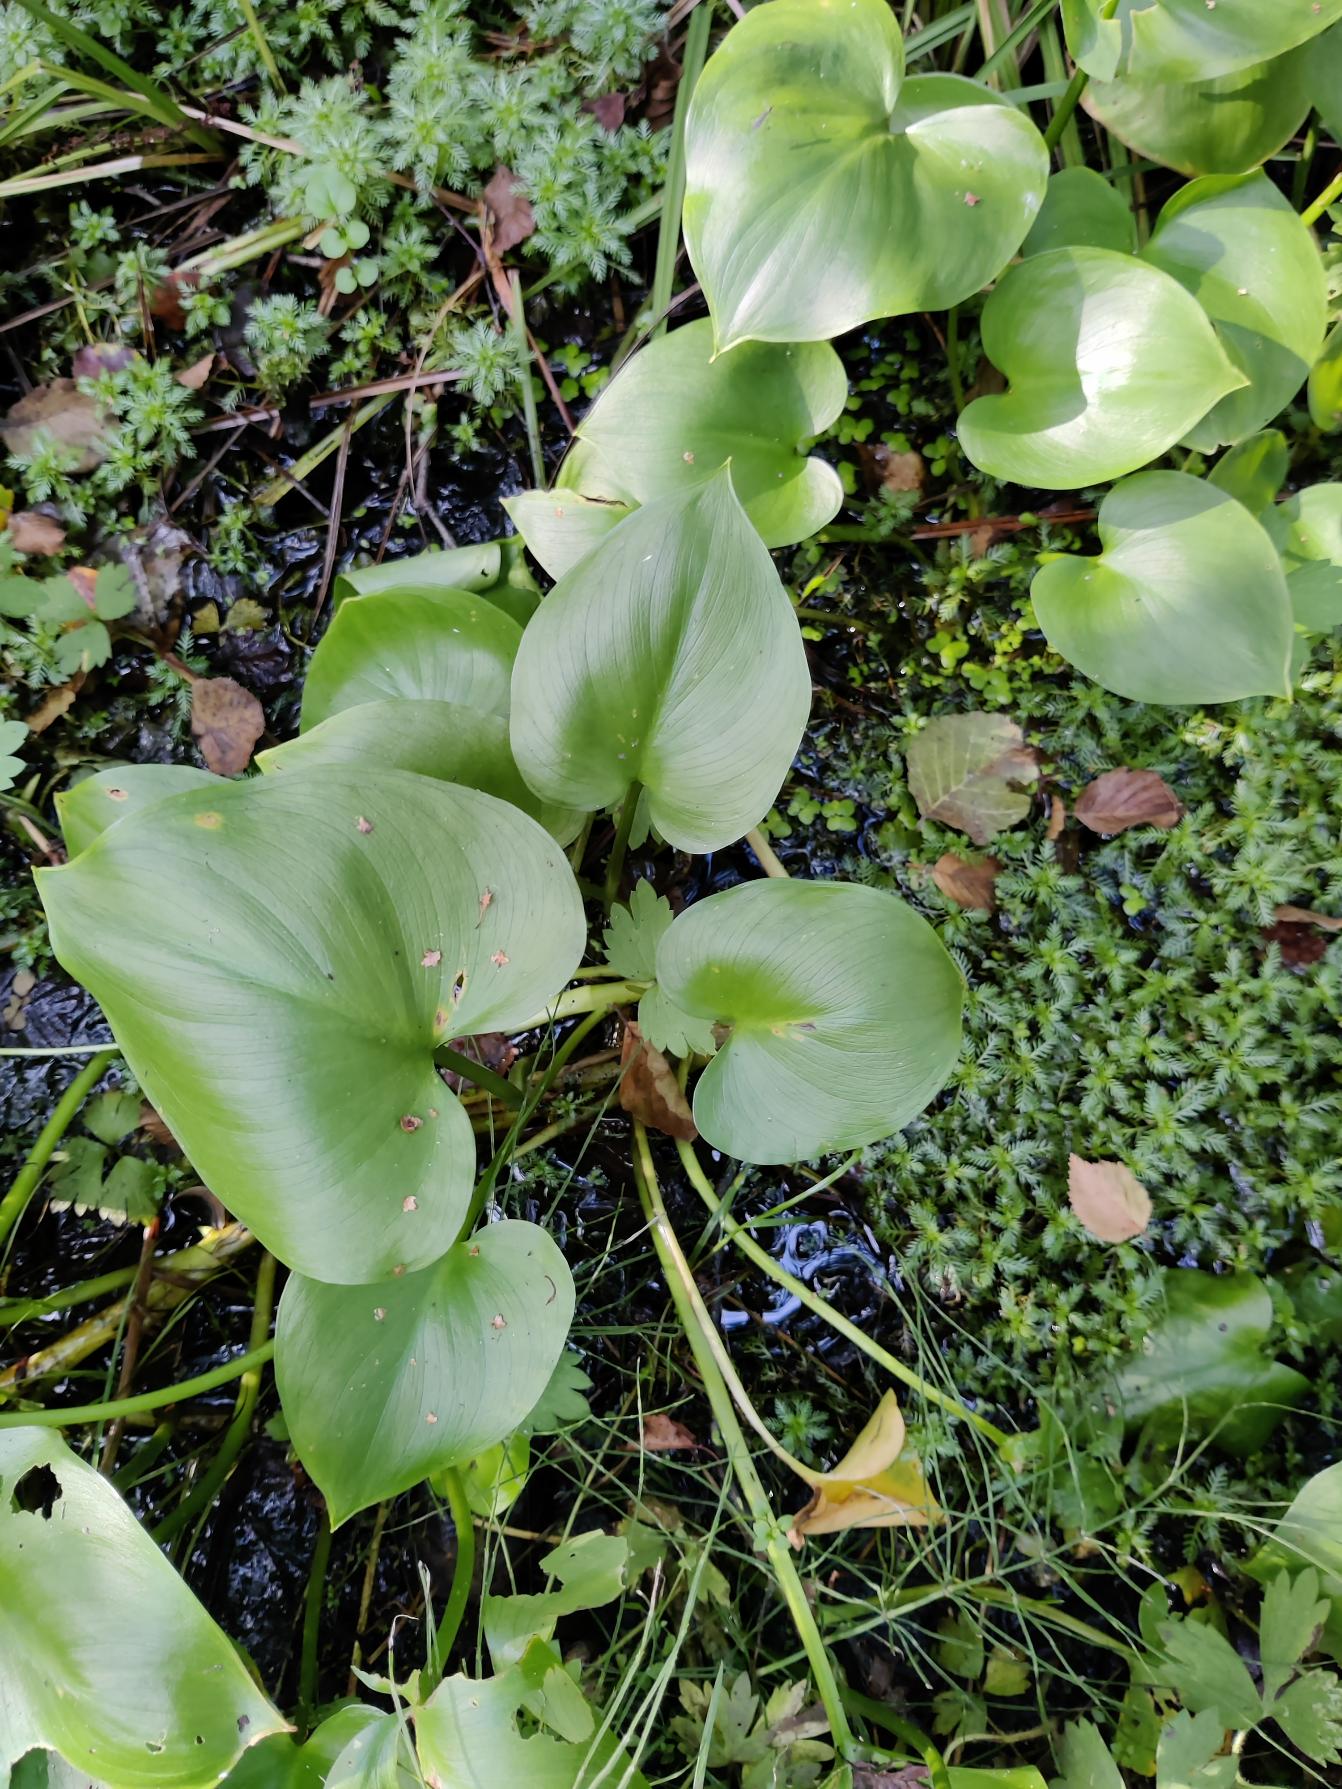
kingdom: Plantae
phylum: Tracheophyta
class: Liliopsida
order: Alismatales
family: Araceae
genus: Calla
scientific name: Calla palustris
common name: Kærmysse
